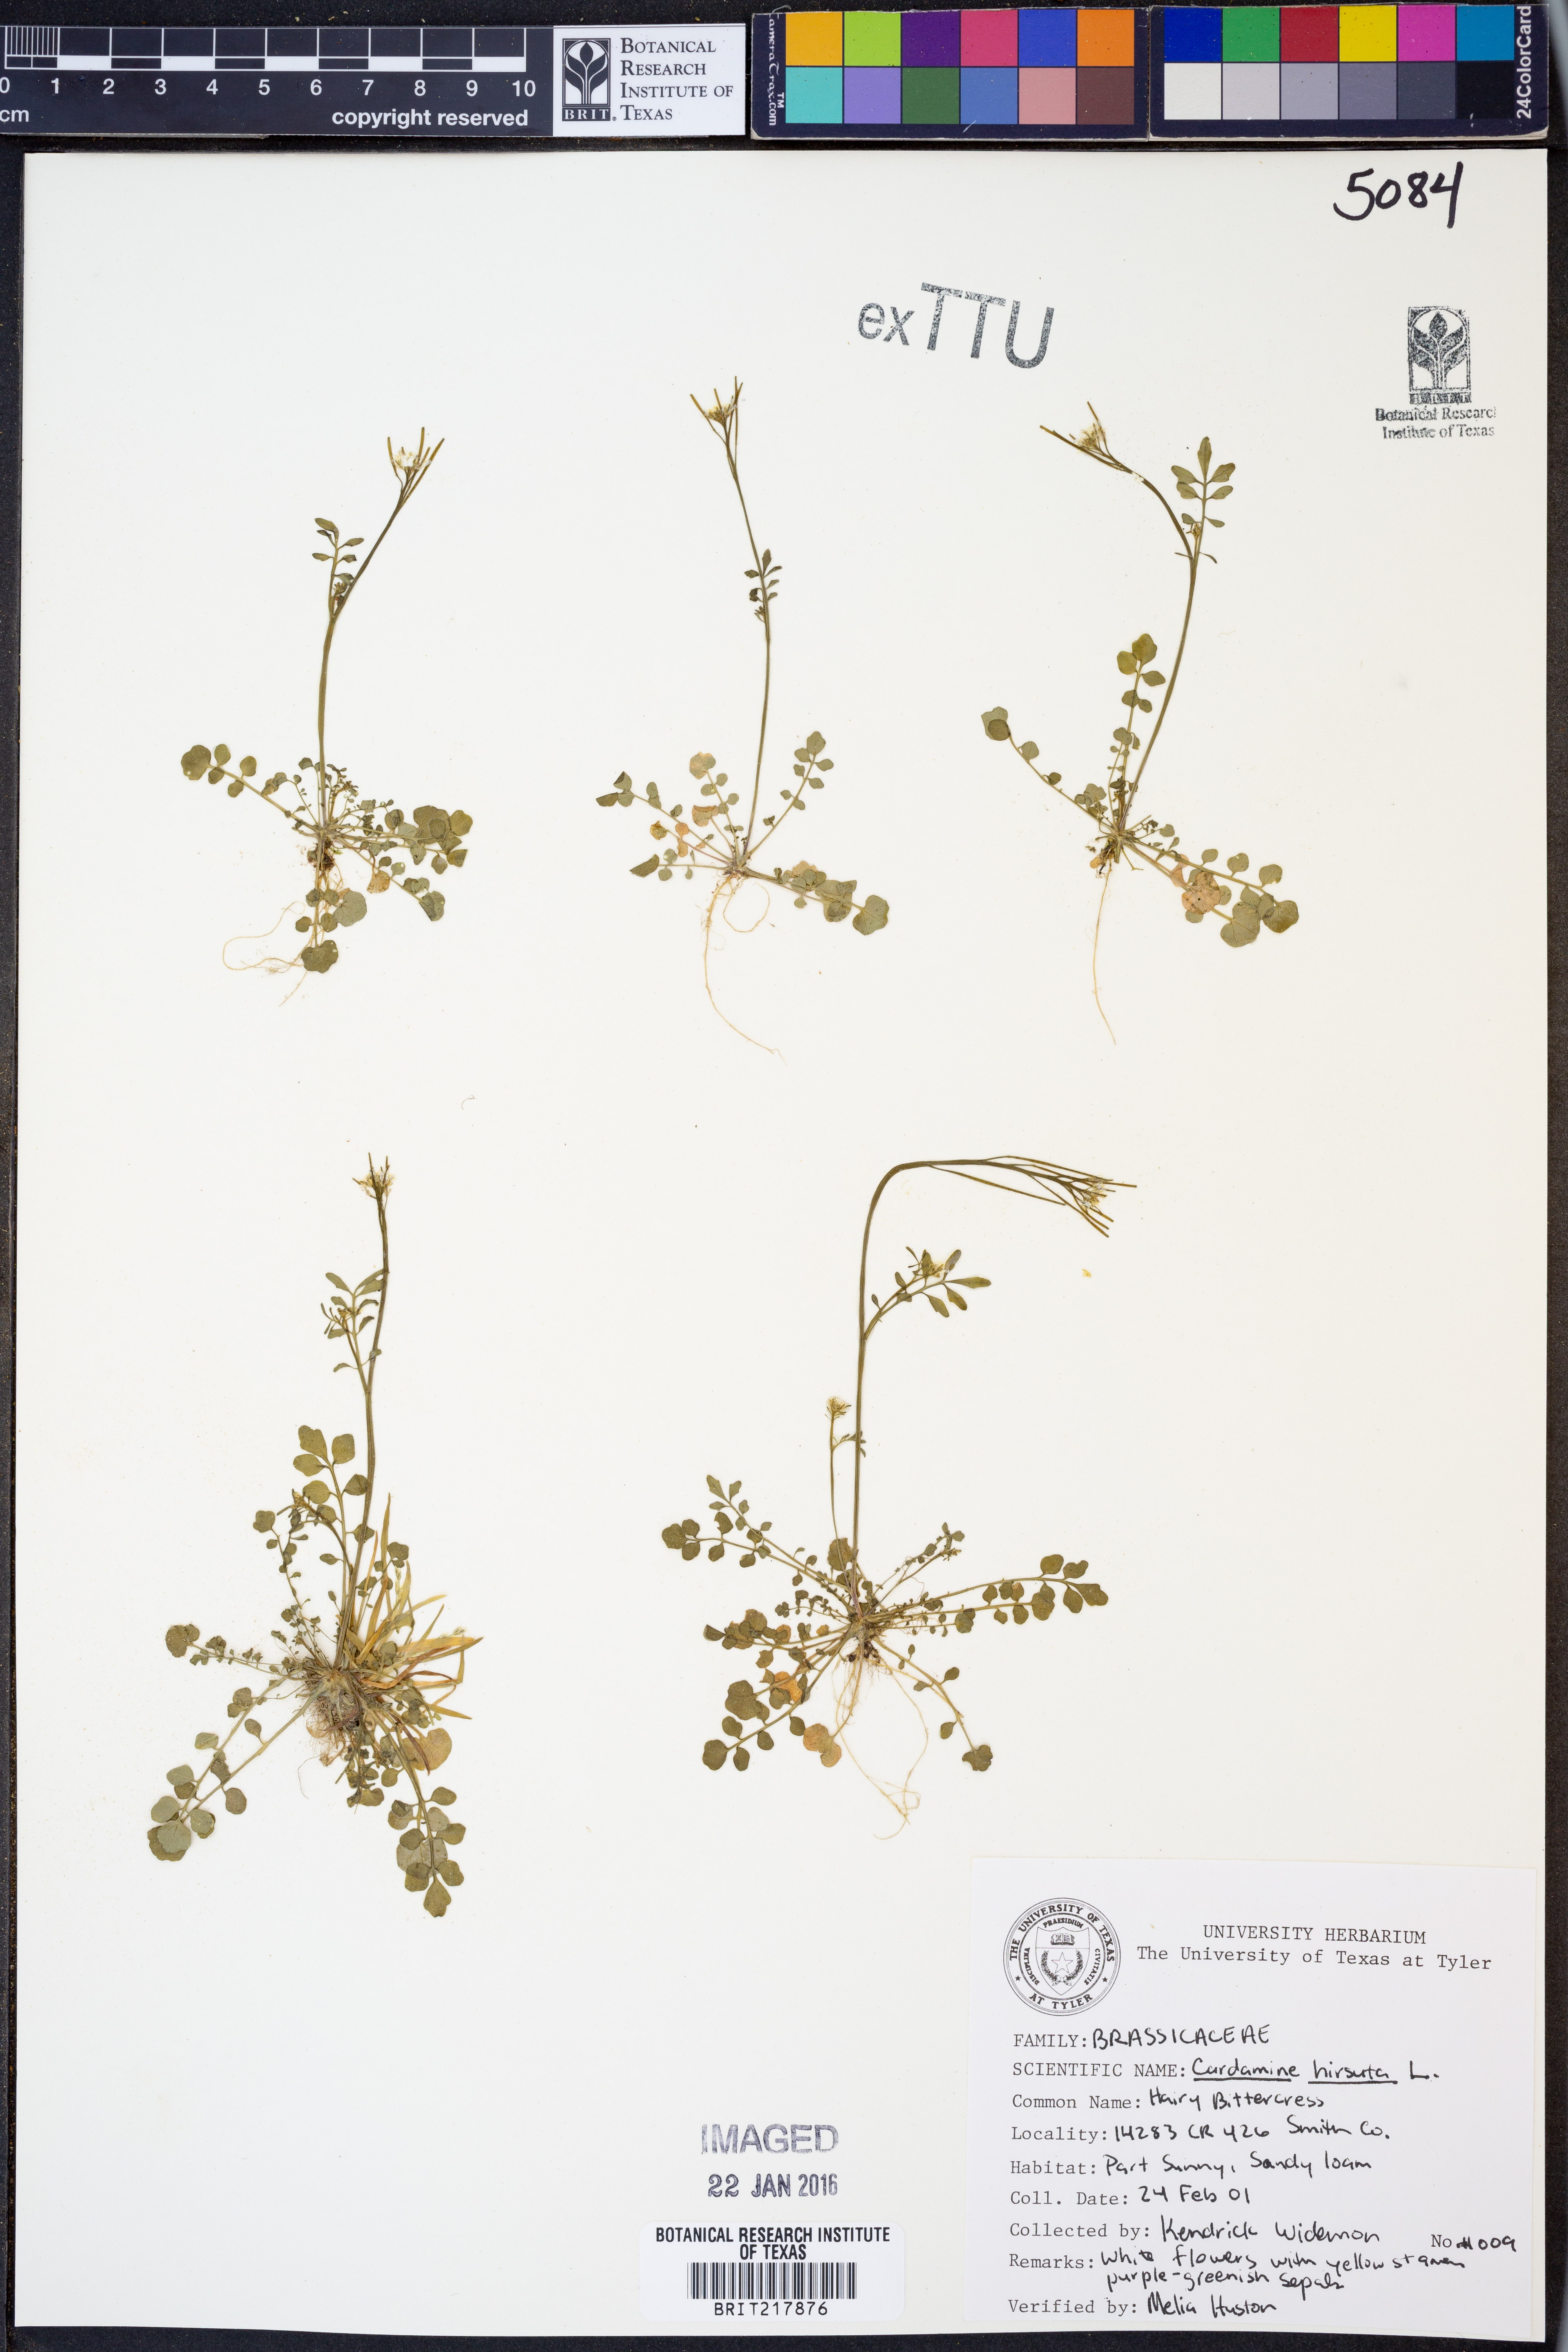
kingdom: Plantae
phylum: Tracheophyta
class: Magnoliopsida
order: Brassicales
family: Brassicaceae
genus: Cardamine
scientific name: Cardamine hirsuta
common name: Hairy bittercress
